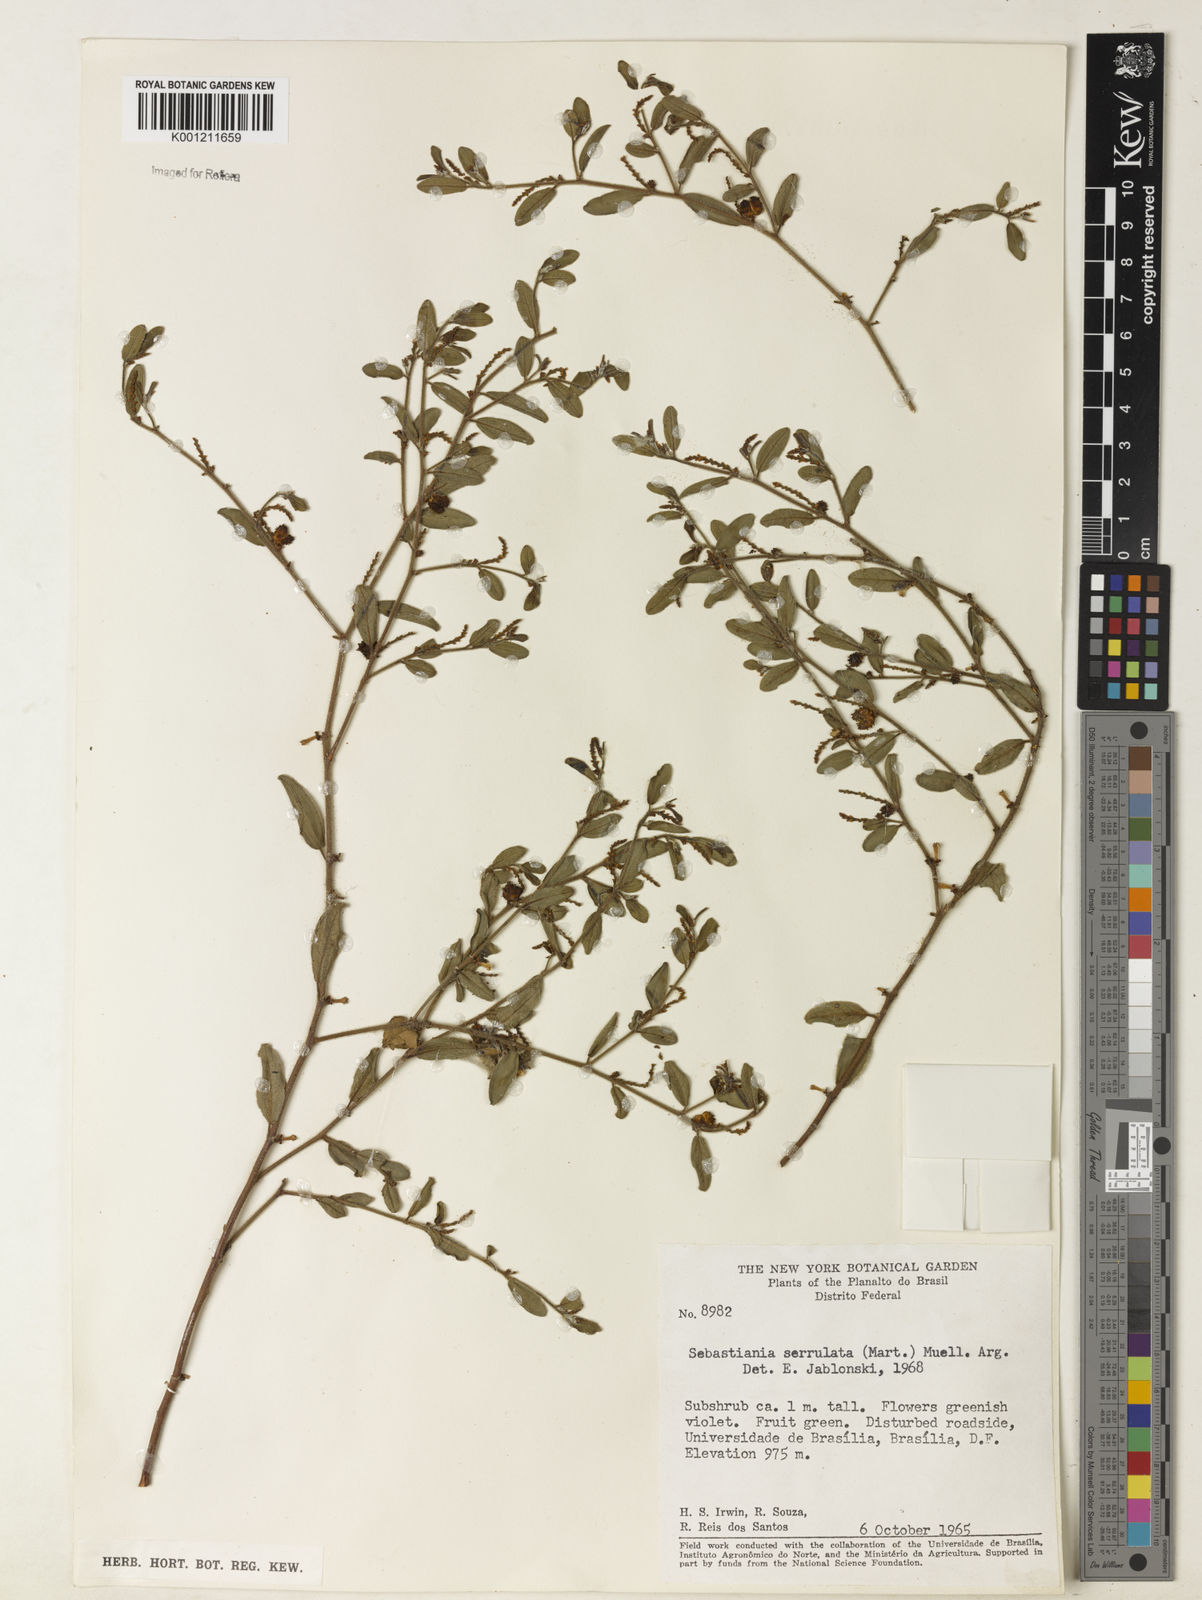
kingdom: Plantae
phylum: Tracheophyta
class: Magnoliopsida
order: Malpighiales
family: Euphorbiaceae
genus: Microstachys
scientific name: Microstachys
